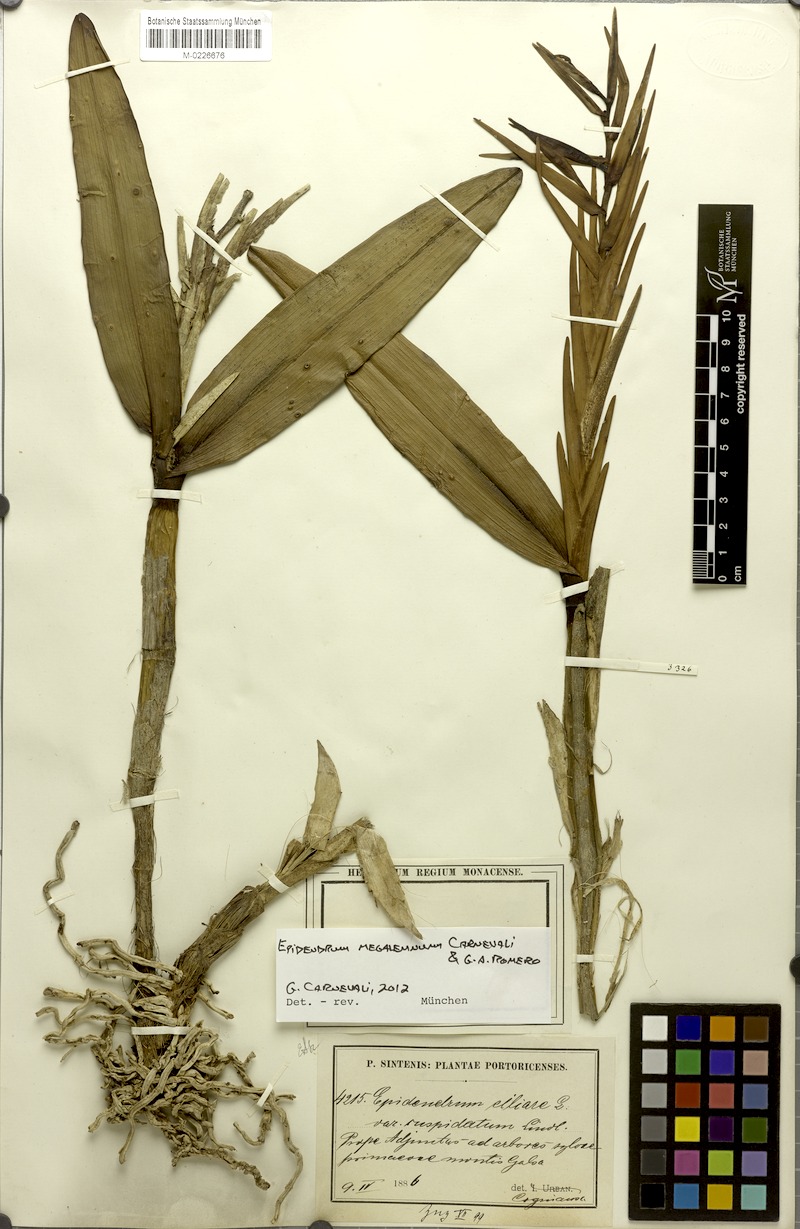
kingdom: Plantae
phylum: Tracheophyta
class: Liliopsida
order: Asparagales
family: Orchidaceae
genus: Epidendrum
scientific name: Epidendrum megalemmum
